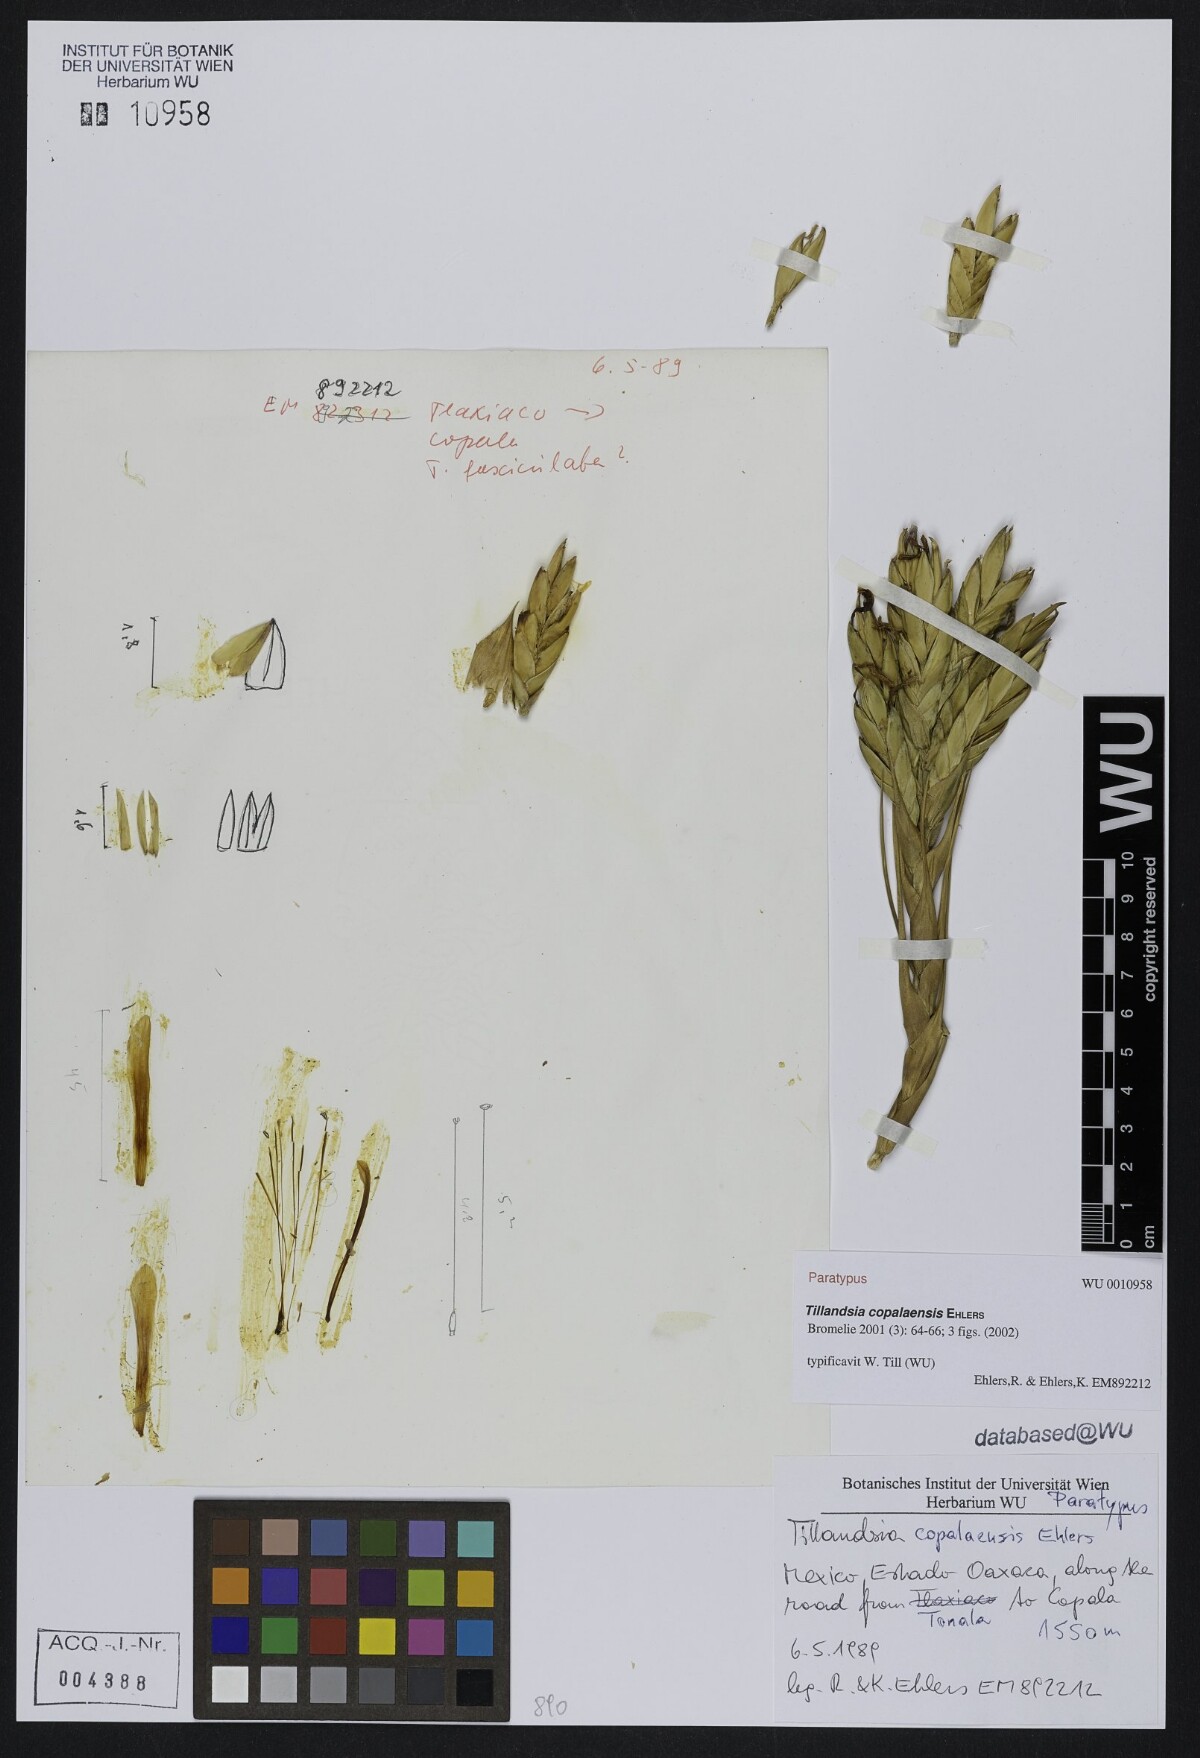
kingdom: Plantae
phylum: Tracheophyta
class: Liliopsida
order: Poales
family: Bromeliaceae
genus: Tillandsia
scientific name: Tillandsia copalaensis
